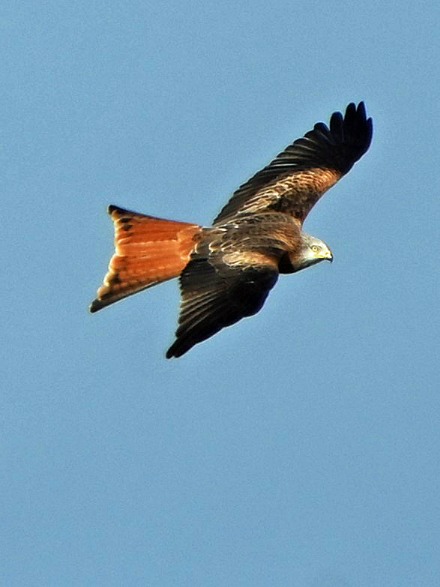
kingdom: Animalia
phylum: Chordata
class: Aves
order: Accipitriformes
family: Accipitridae
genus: Milvus
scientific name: Milvus milvus
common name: Rød glente
